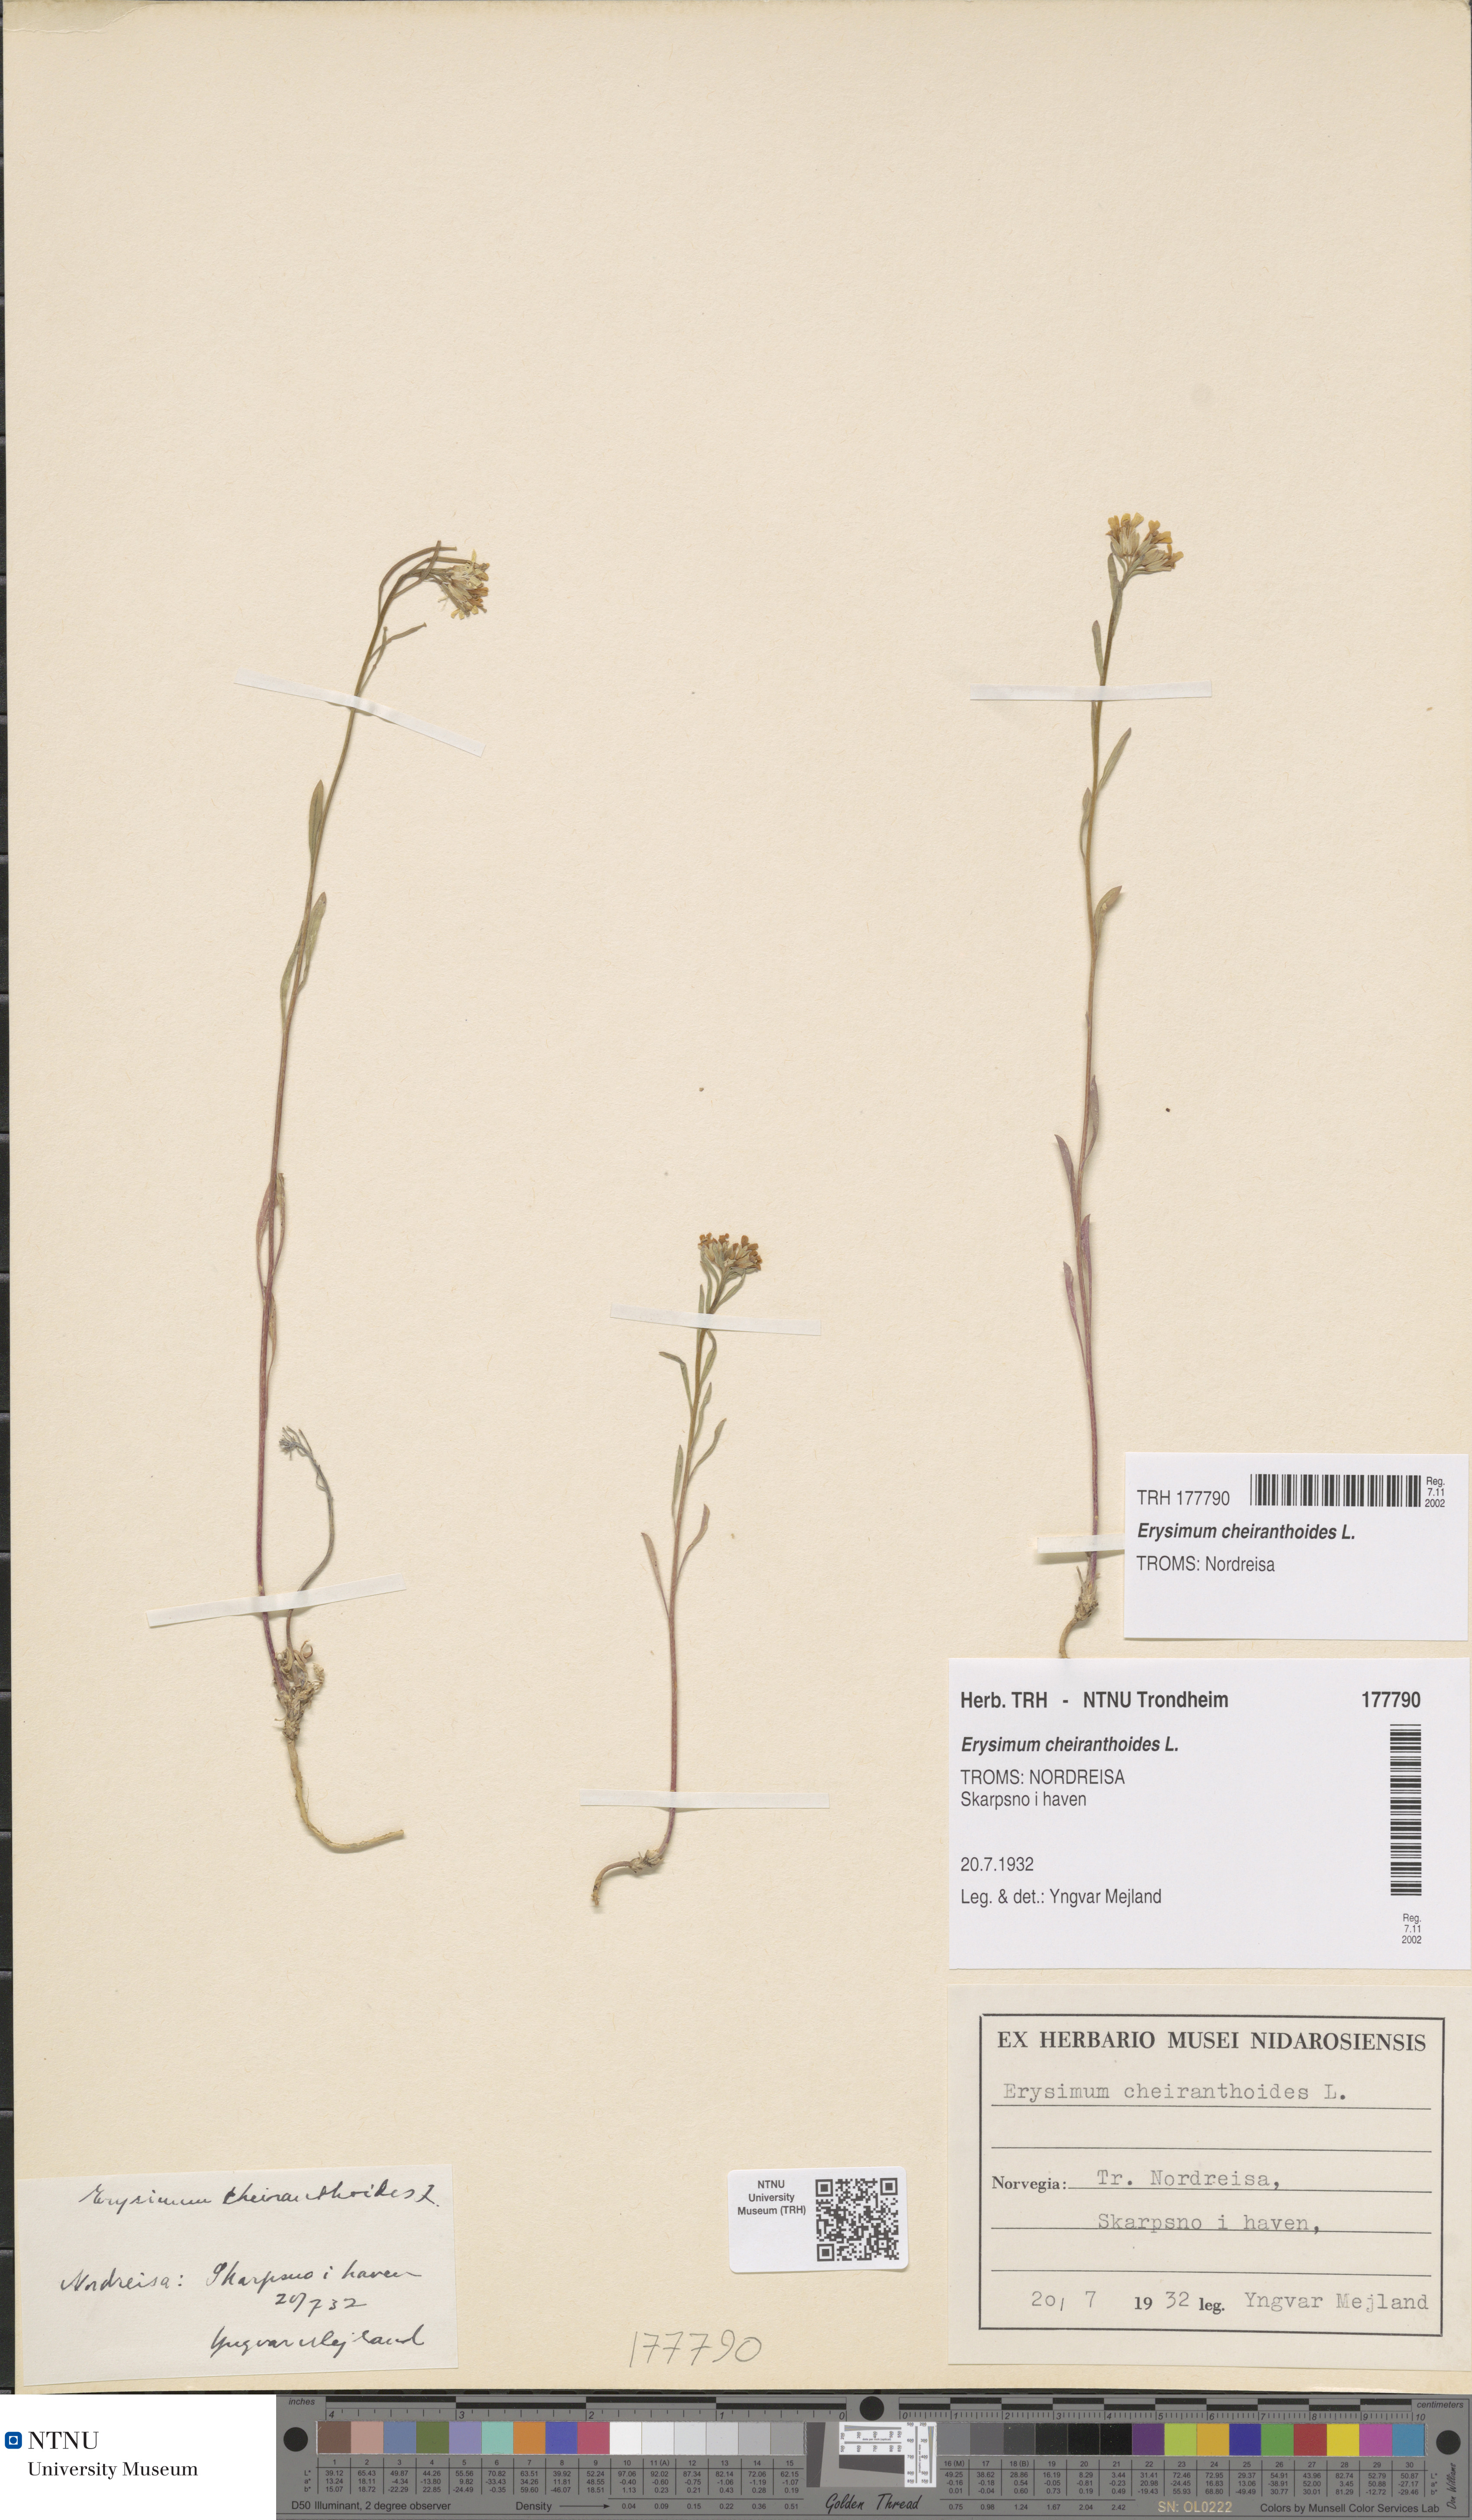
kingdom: Plantae
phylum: Tracheophyta
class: Magnoliopsida
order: Brassicales
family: Brassicaceae
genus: Erysimum
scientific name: Erysimum cheiranthoides
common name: Treacle mustard
